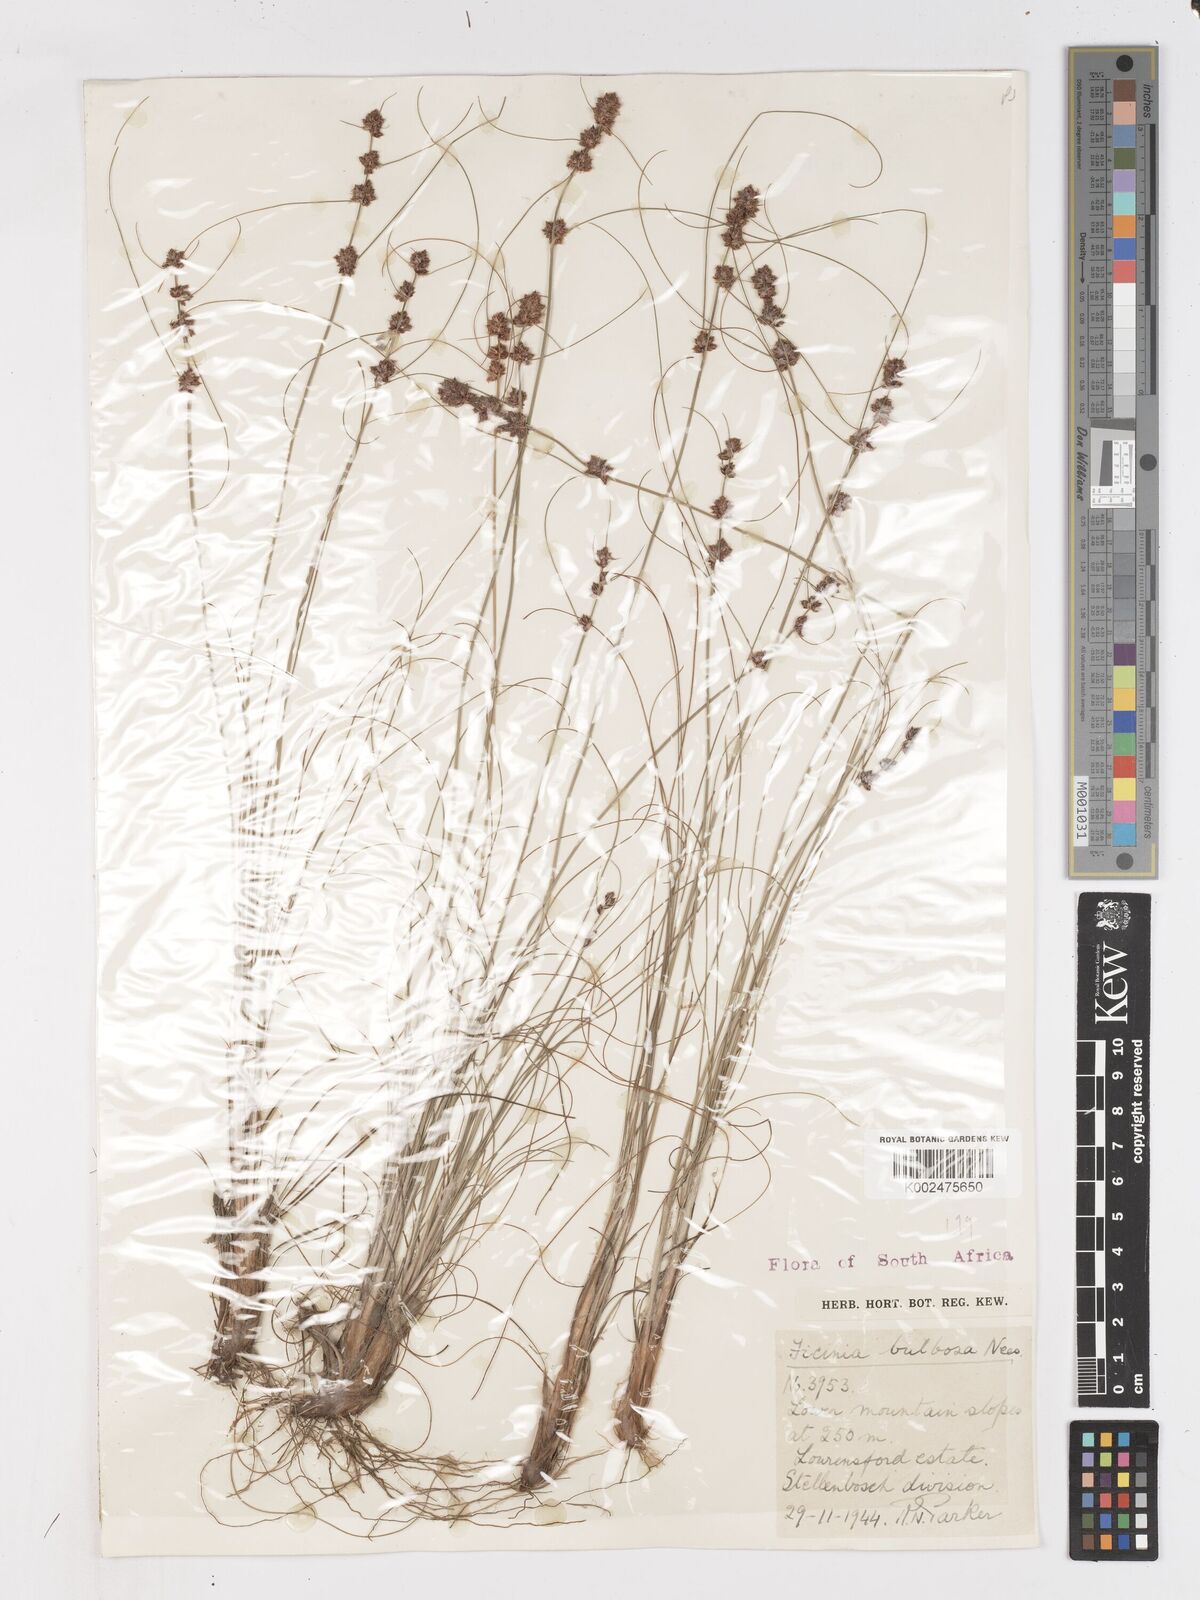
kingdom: Plantae
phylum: Tracheophyta
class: Liliopsida
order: Poales
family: Cyperaceae
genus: Ficinia
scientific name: Ficinia bulbosa
